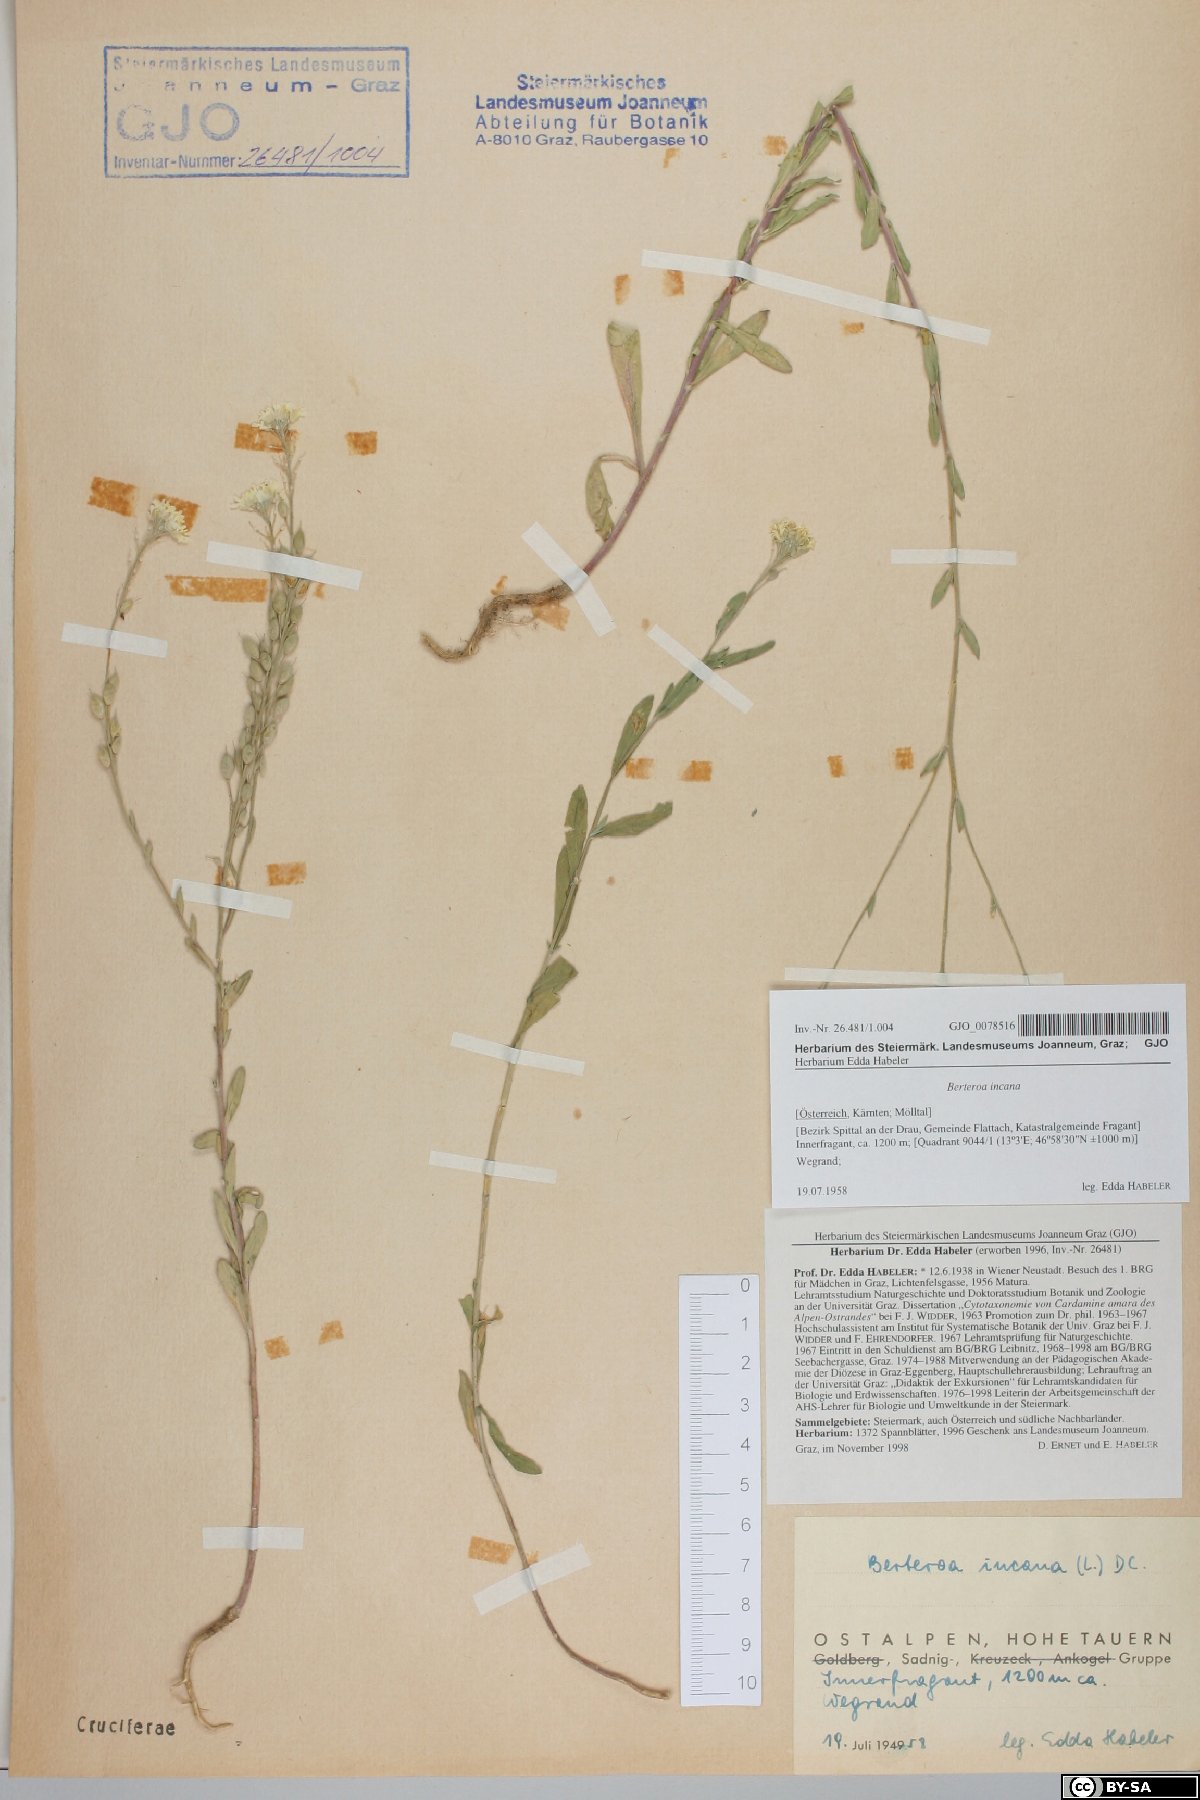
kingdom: Plantae
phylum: Tracheophyta
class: Magnoliopsida
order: Brassicales
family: Brassicaceae
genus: Berteroa
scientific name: Berteroa incana
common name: Hoary alison
